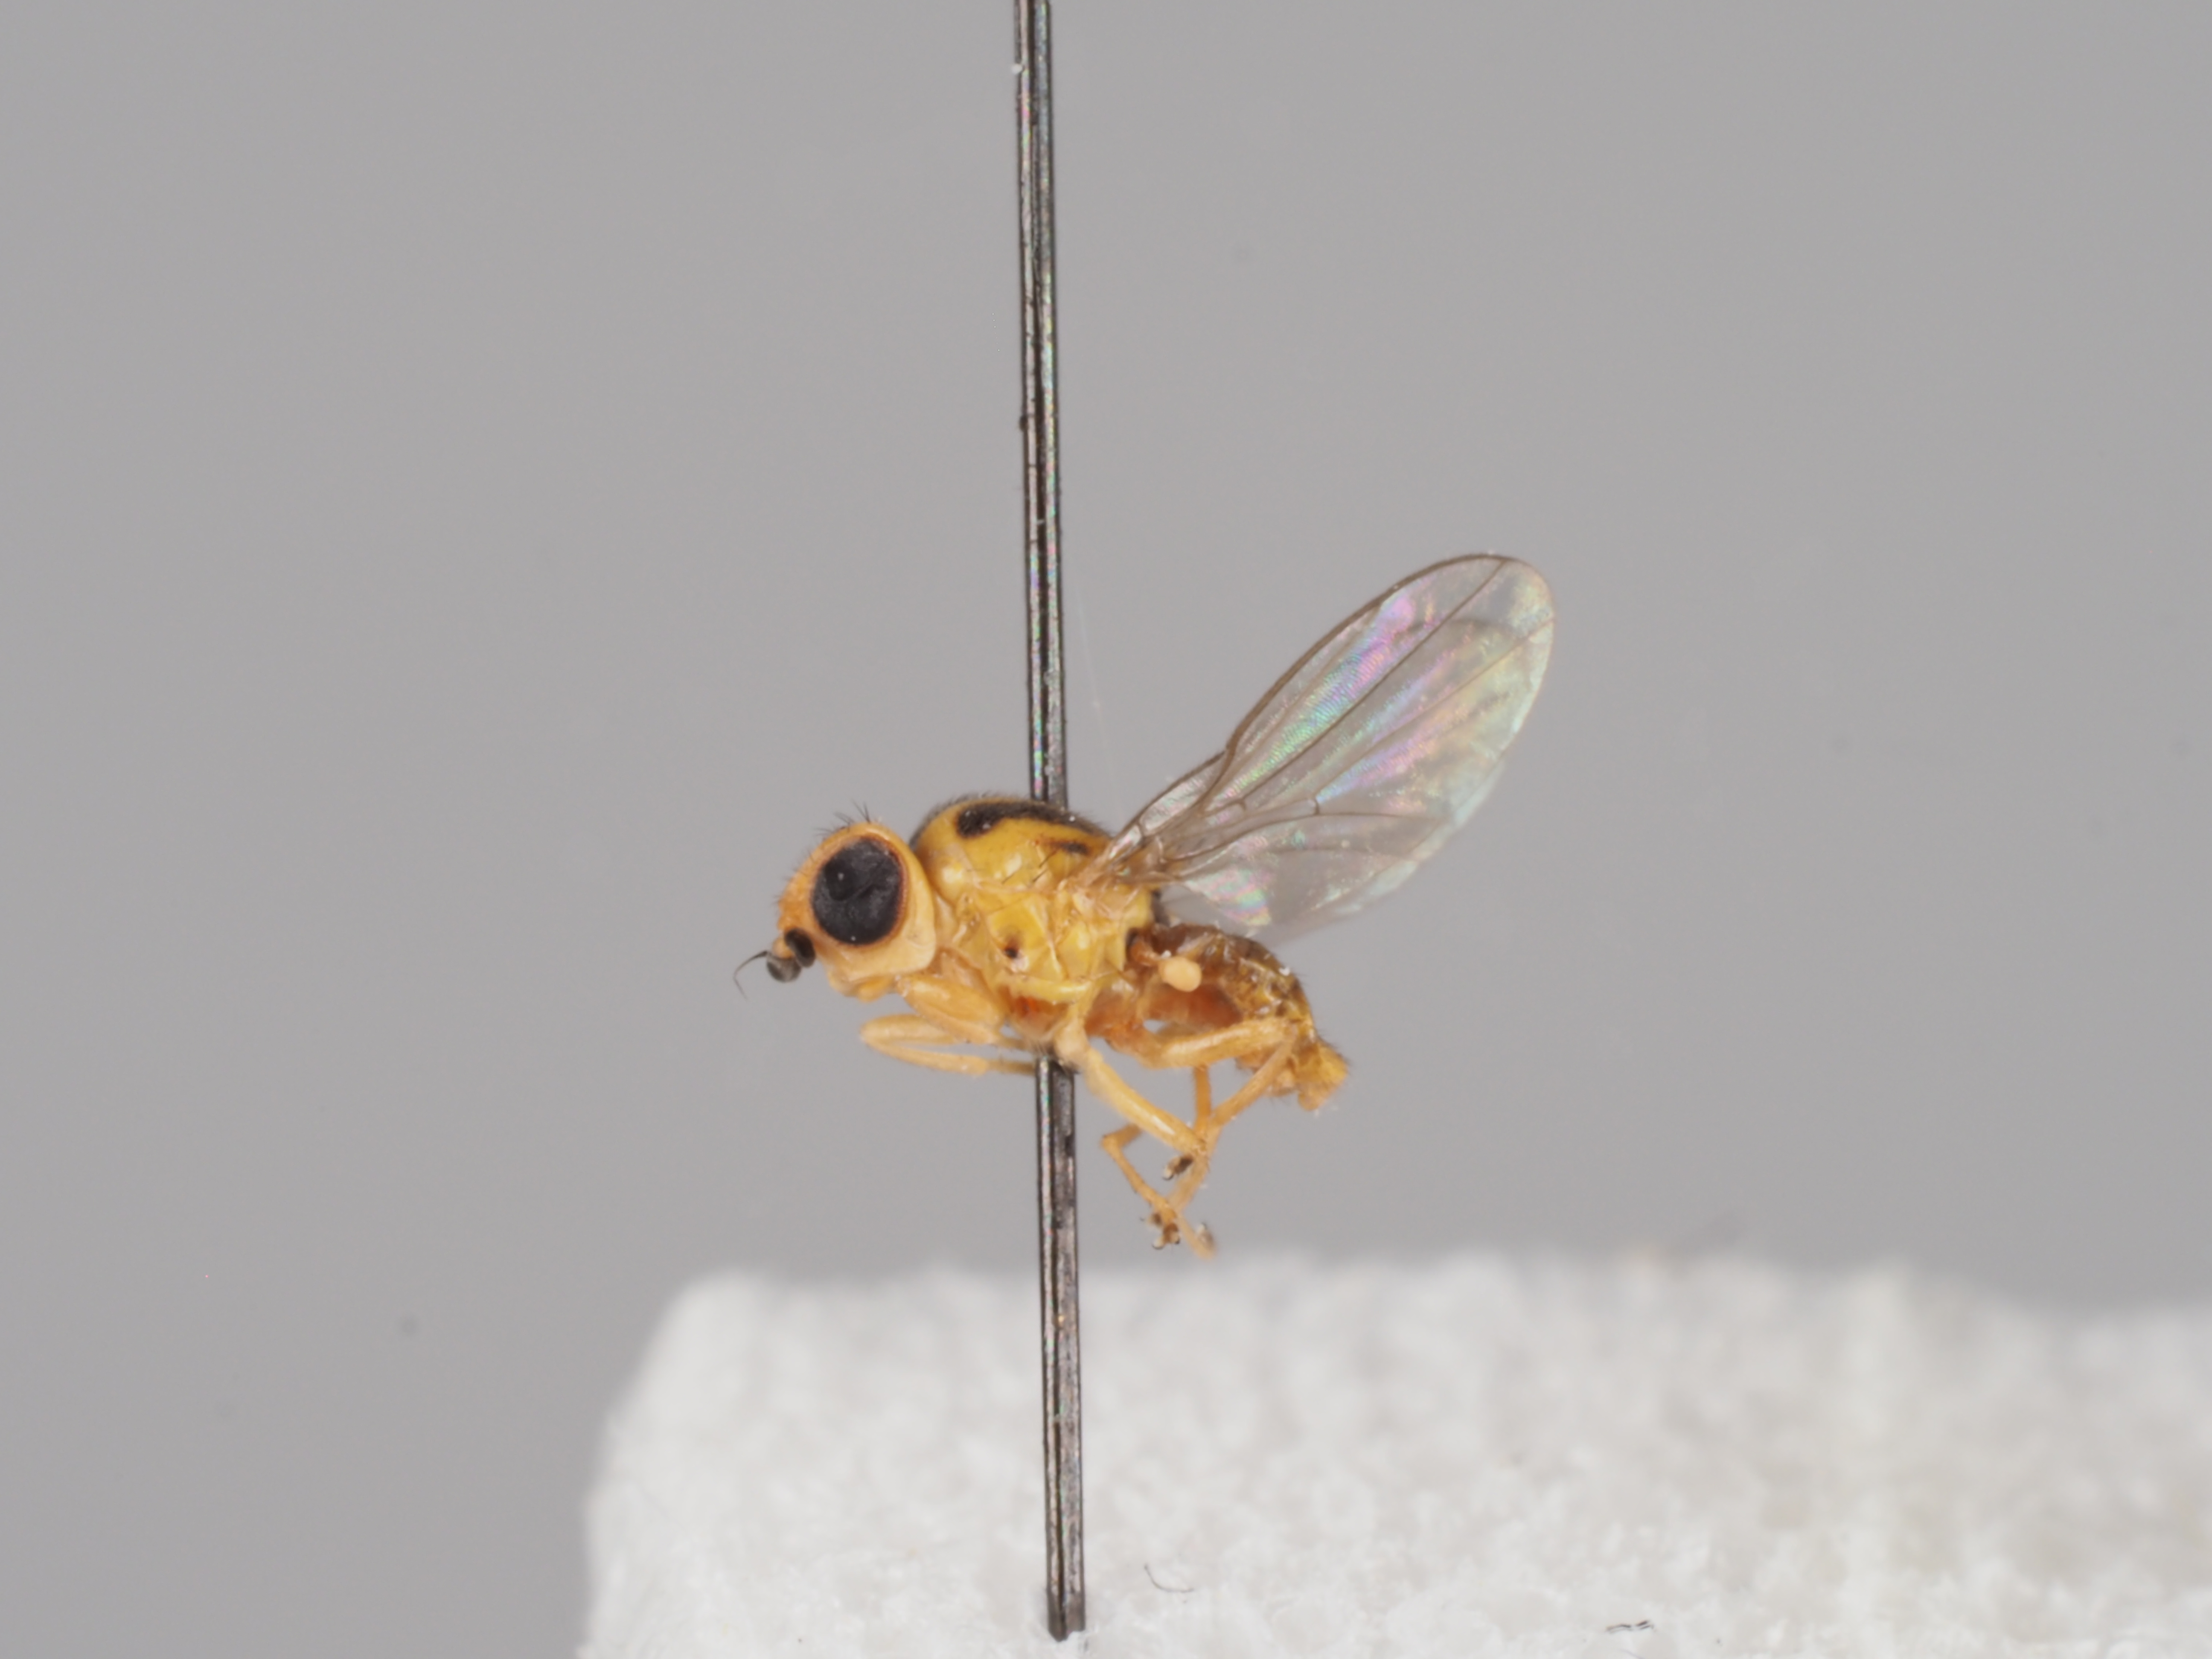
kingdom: Animalia
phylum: Arthropoda
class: Insecta
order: Diptera
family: Chloropidae
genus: Chlorops
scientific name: Chlorops centromaculatus
